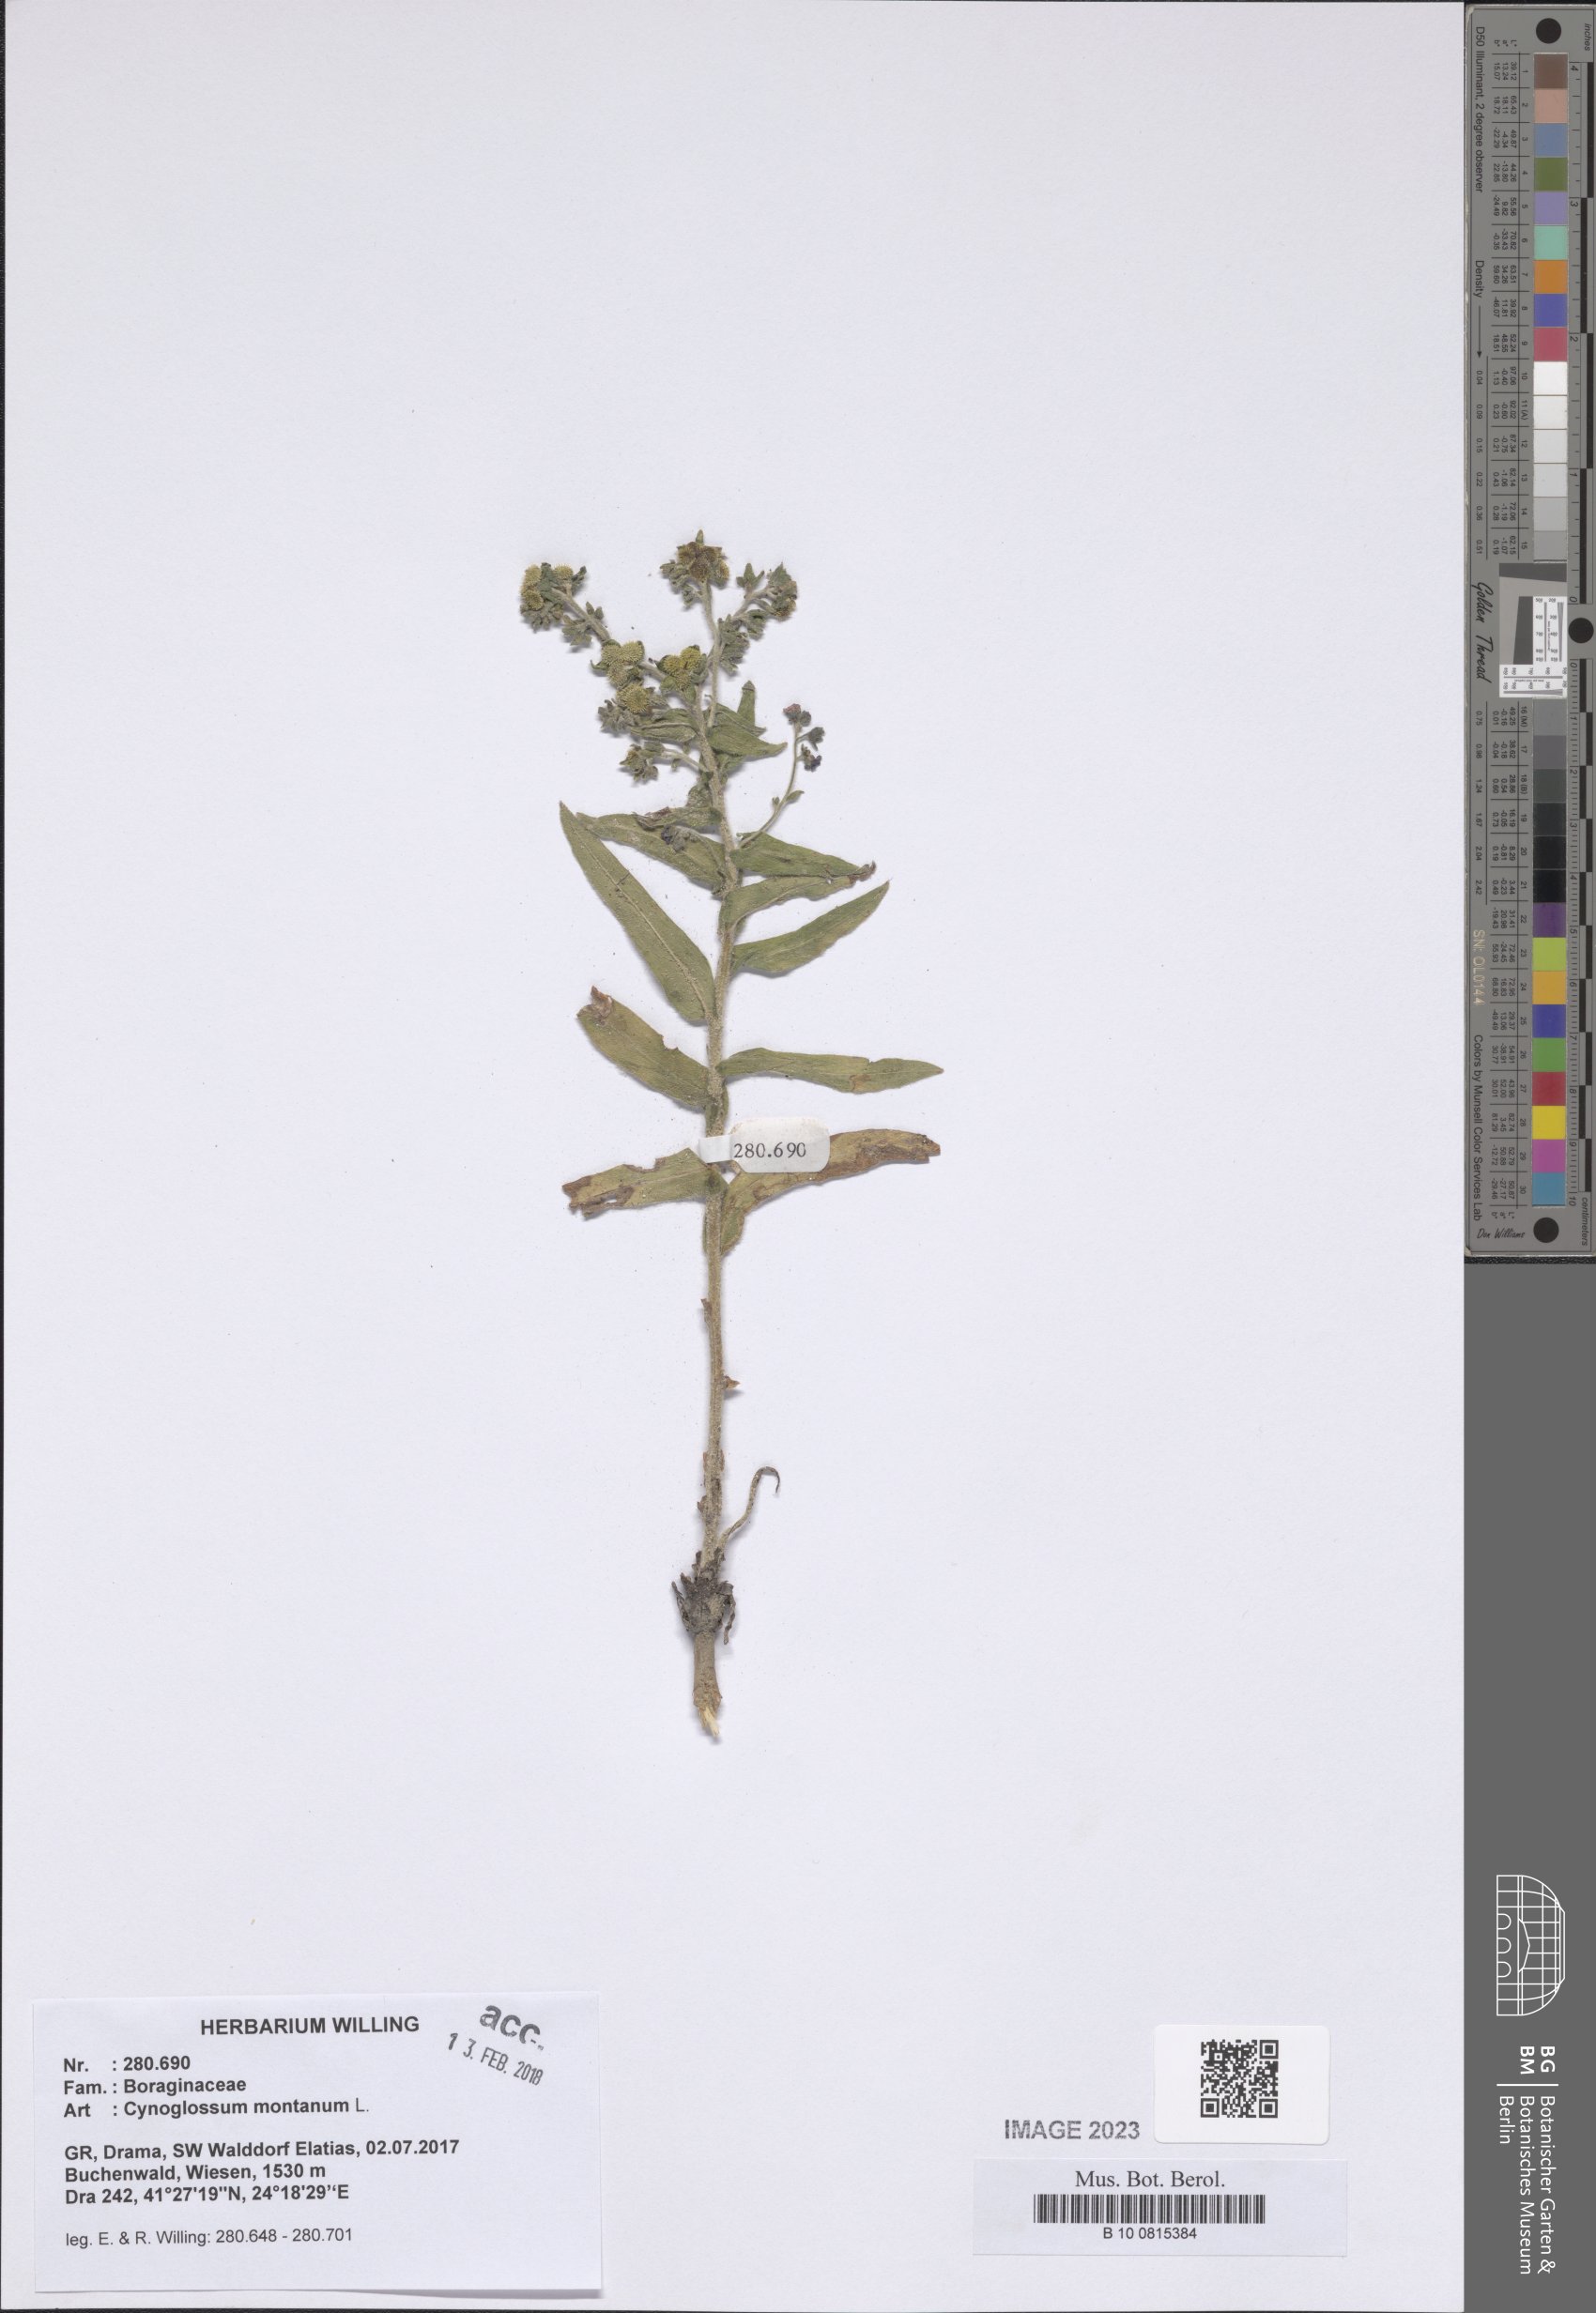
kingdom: Plantae
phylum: Tracheophyta
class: Magnoliopsida
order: Boraginales
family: Boraginaceae
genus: Cynoglossum
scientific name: Cynoglossum montanum
